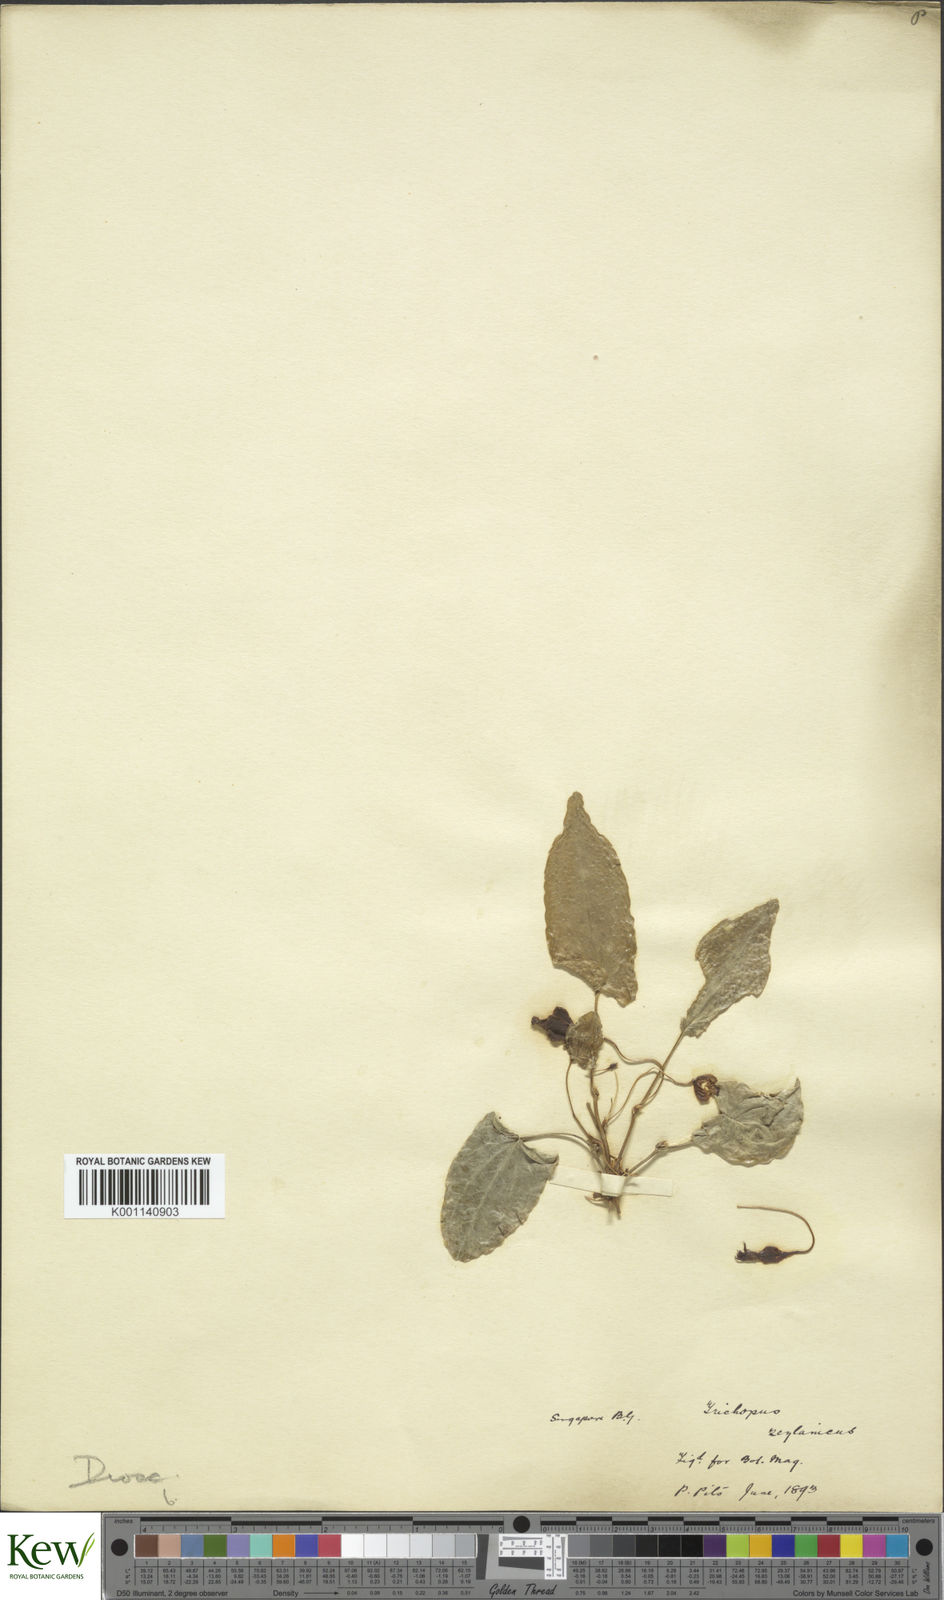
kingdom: Plantae
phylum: Tracheophyta
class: Liliopsida
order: Dioscoreales
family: Dioscoreaceae
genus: Trichopus
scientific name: Trichopus zeylanicus
